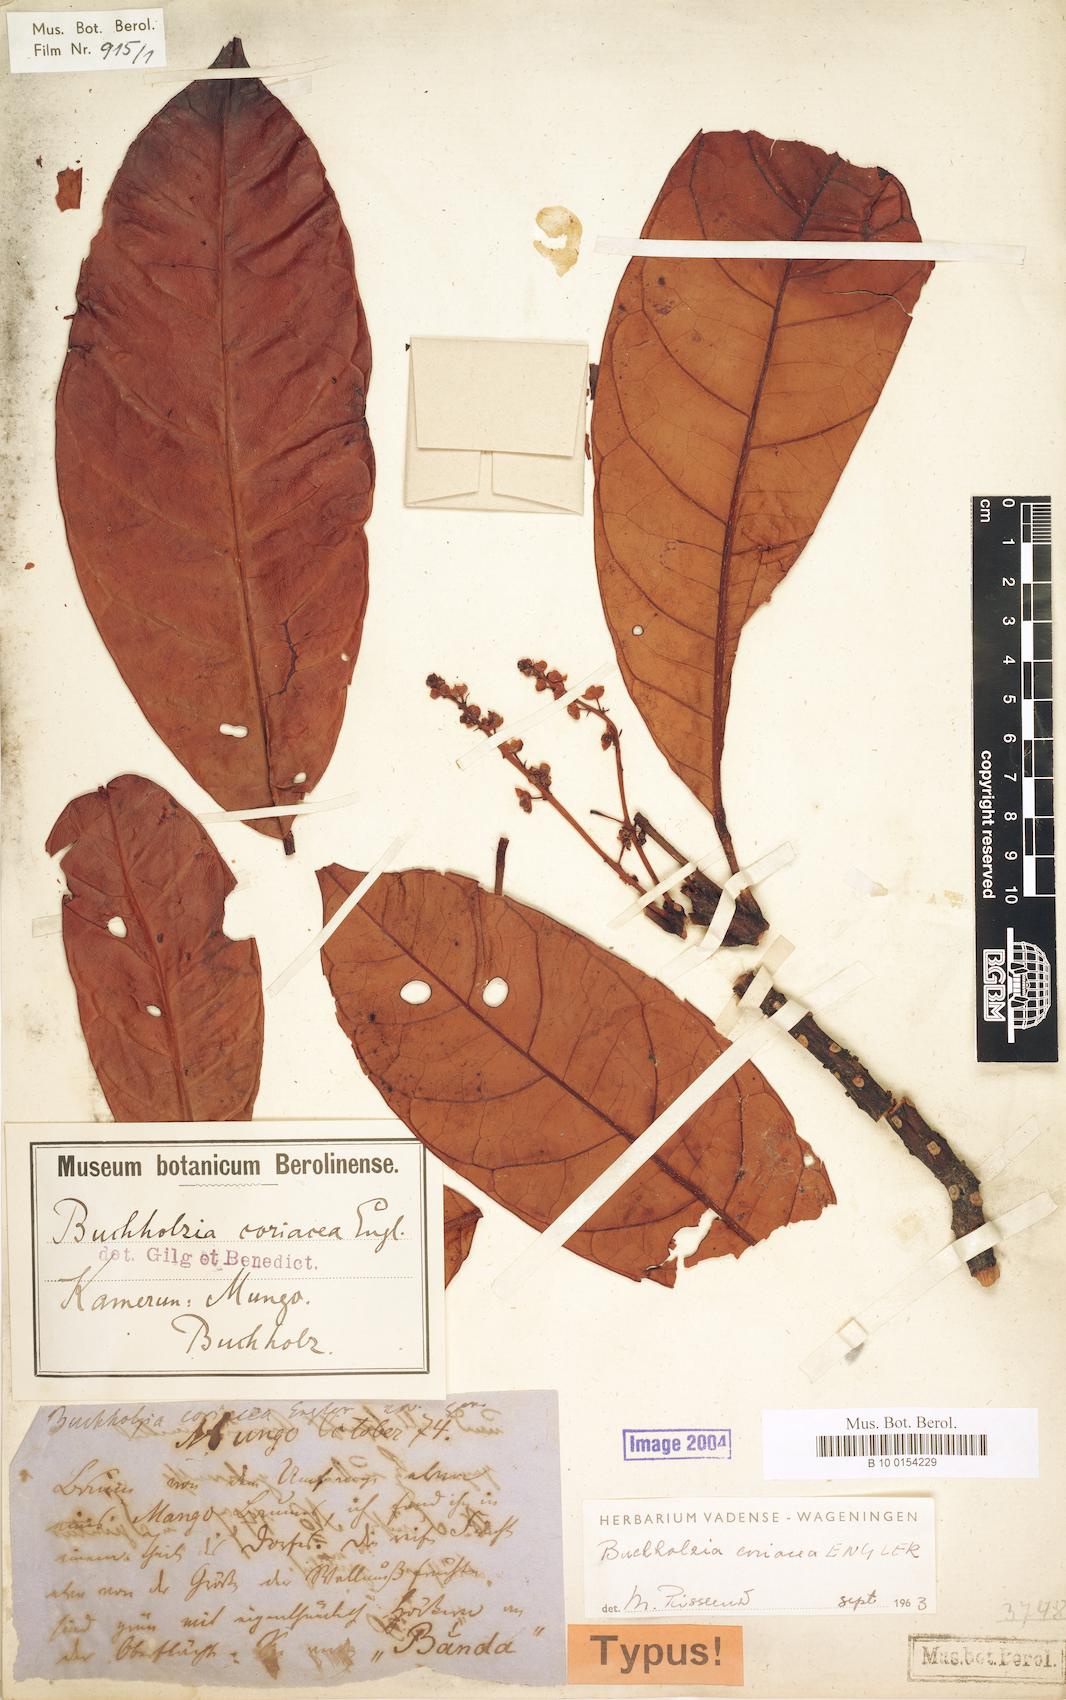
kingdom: Plantae
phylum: Tracheophyta
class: Magnoliopsida
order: Brassicales
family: Capparaceae
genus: Buchholzia
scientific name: Buchholzia coriacea
